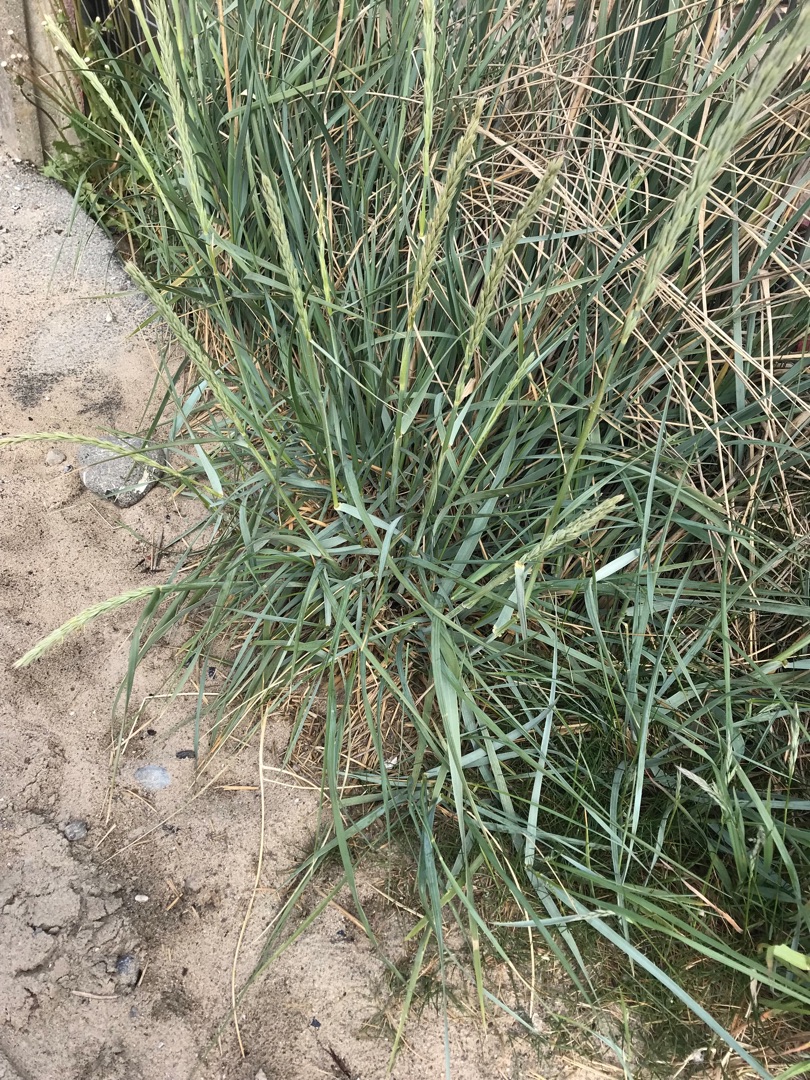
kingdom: Plantae
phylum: Tracheophyta
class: Liliopsida
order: Poales
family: Poaceae
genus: Leymus
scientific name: Leymus arenarius
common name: Marehalm
